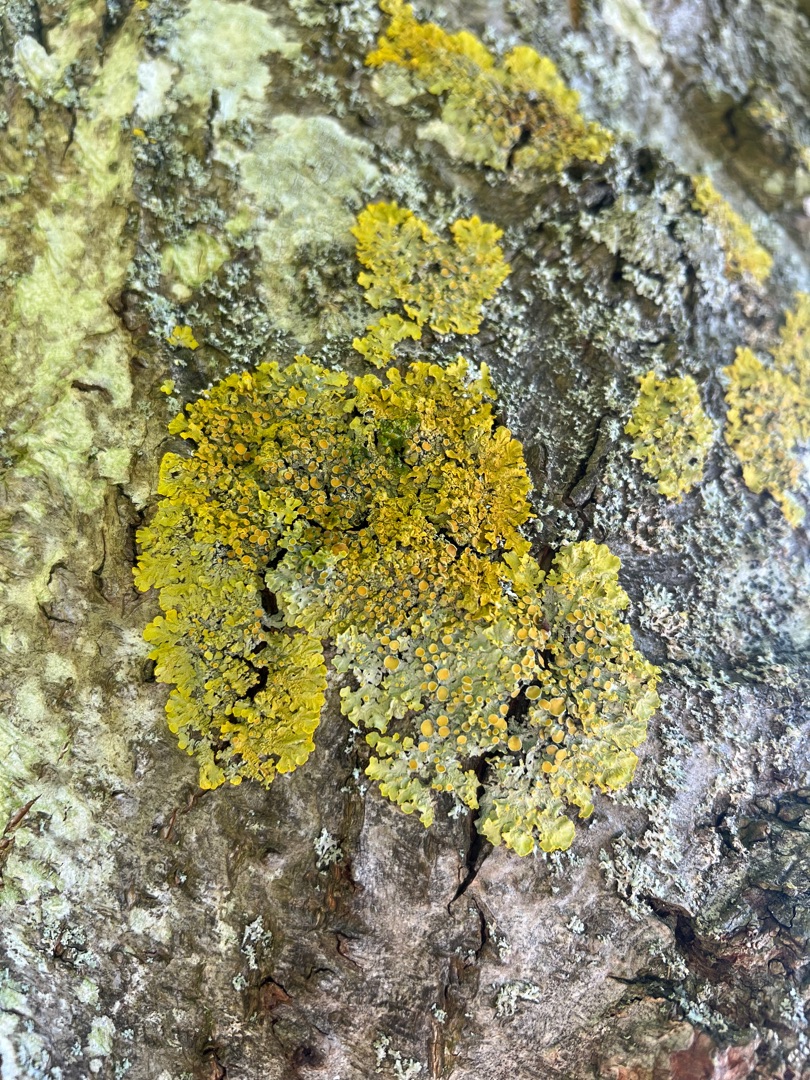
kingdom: Fungi
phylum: Ascomycota
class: Lecanoromycetes
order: Teloschistales
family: Teloschistaceae
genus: Xanthoria
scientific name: Xanthoria parietina
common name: Almindelig væggelav
